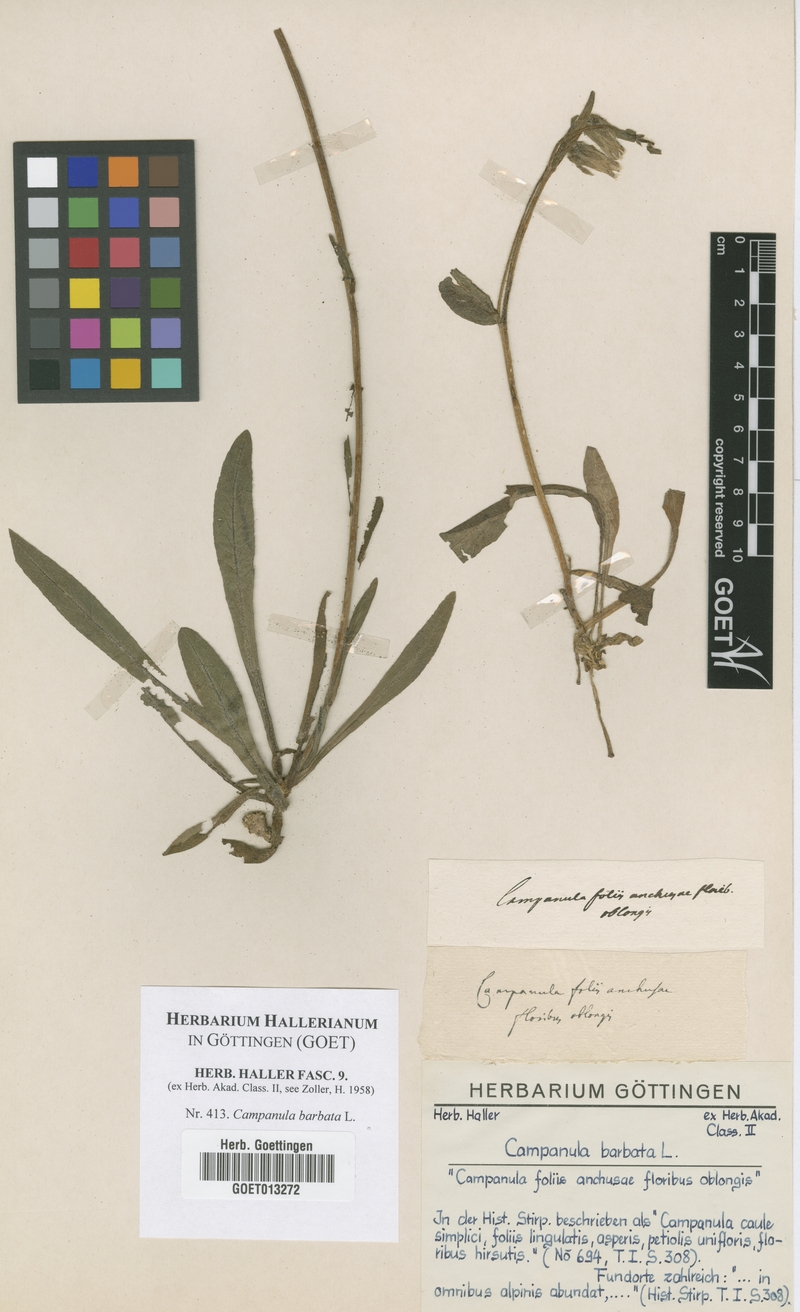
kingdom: Plantae
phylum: Tracheophyta
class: Magnoliopsida
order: Asterales
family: Campanulaceae
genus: Campanula
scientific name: Campanula barbata
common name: Bearded bellflower
